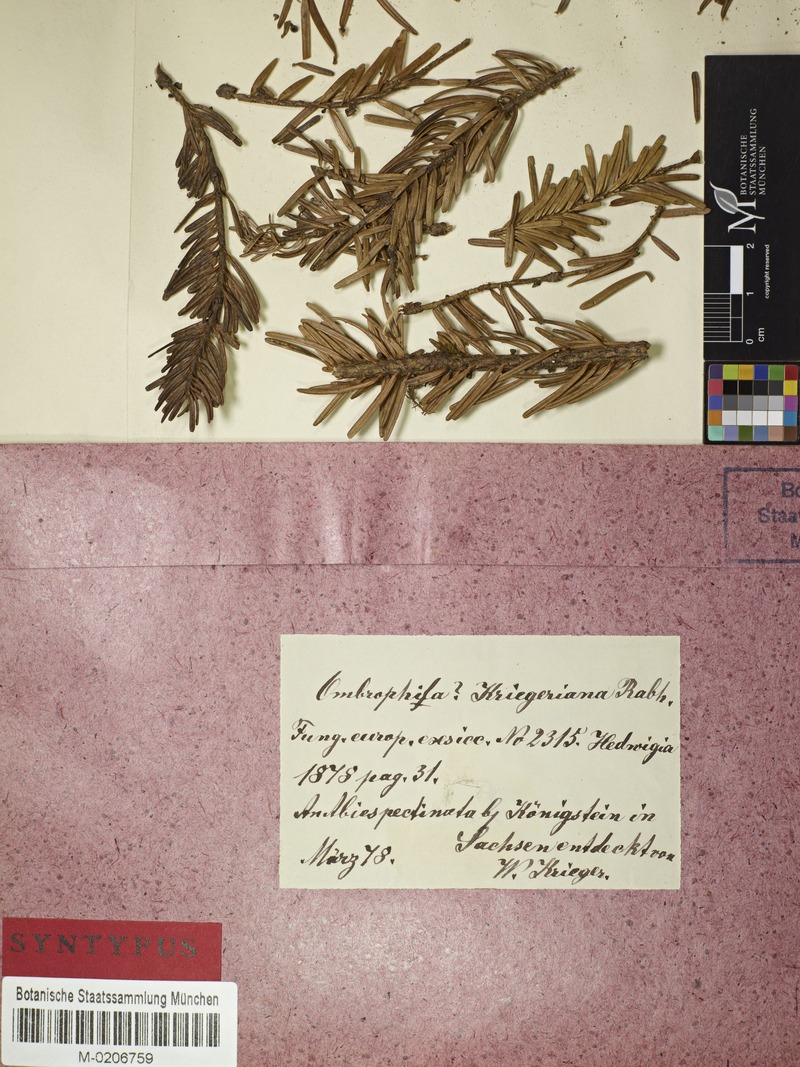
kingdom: Fungi
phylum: Ascomycota
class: Leotiomycetes
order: Helotiales
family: Rutstroemiaceae
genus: Rutstroemia
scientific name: Rutstroemia elatina
